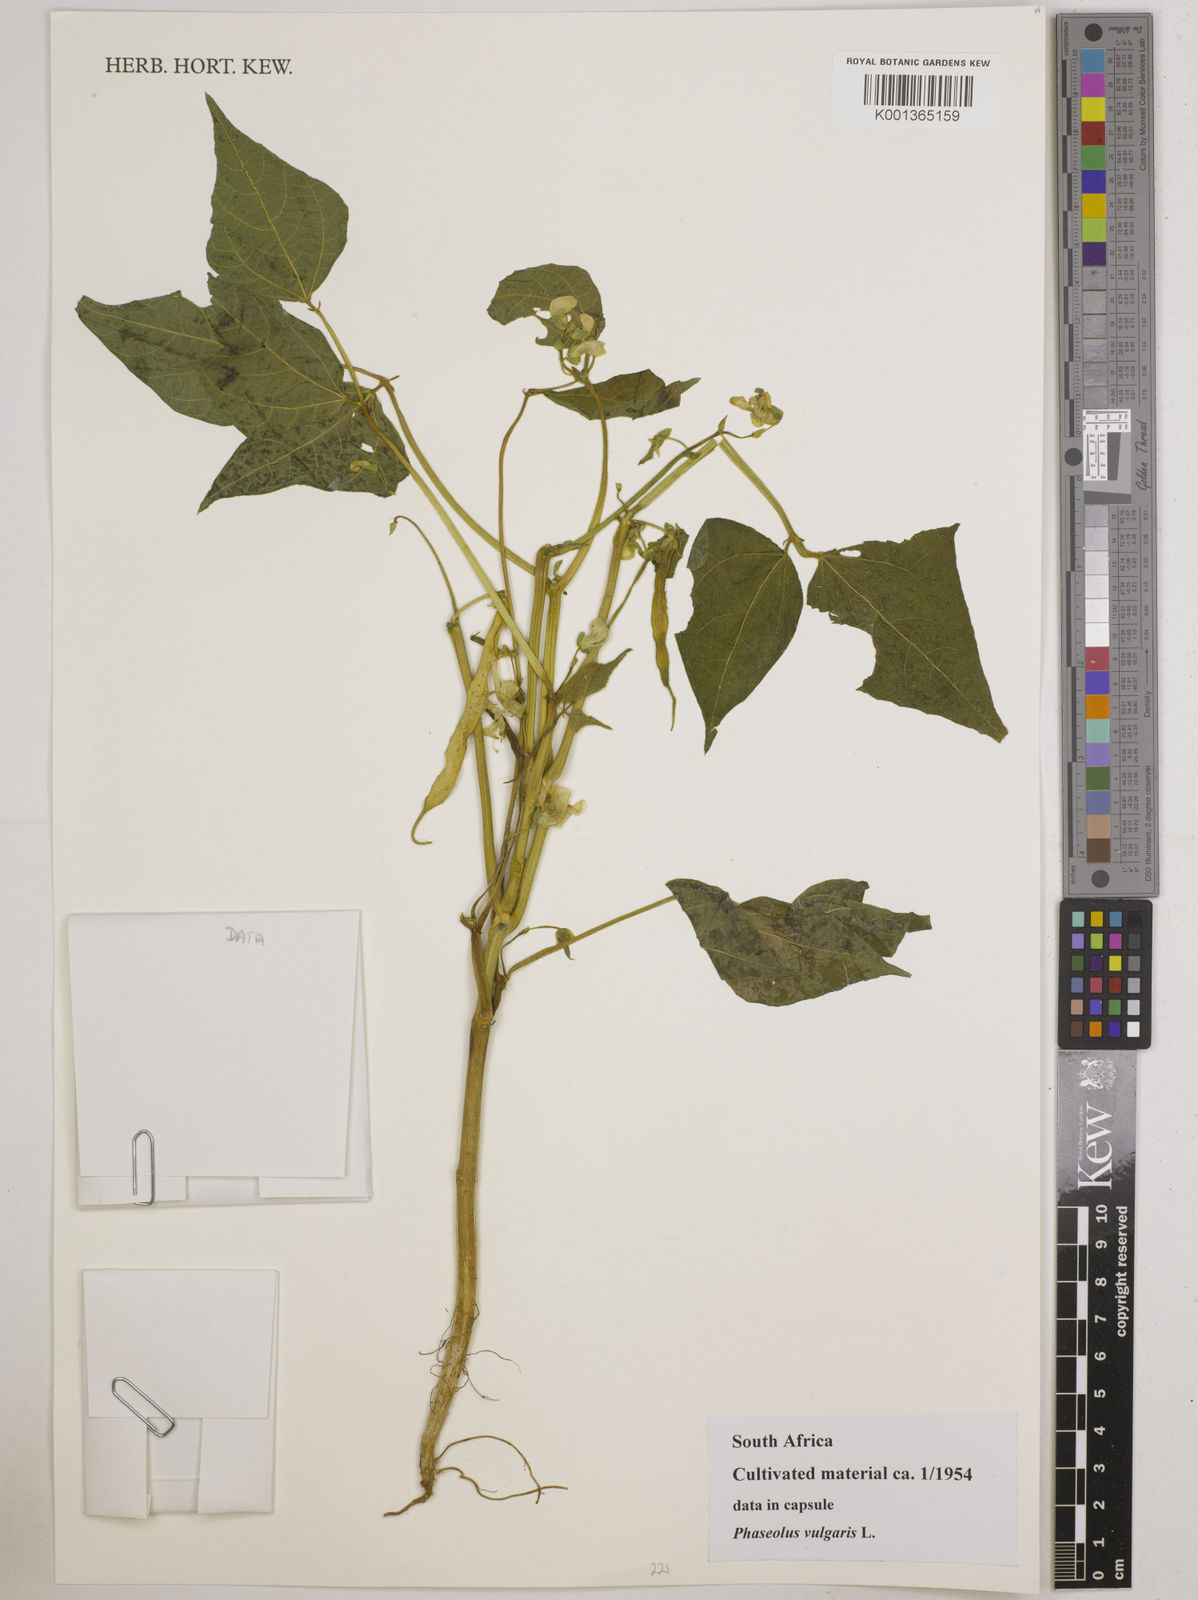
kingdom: Plantae
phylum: Tracheophyta
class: Magnoliopsida
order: Fabales
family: Fabaceae
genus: Phaseolus
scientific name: Phaseolus vulgaris
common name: Bean
